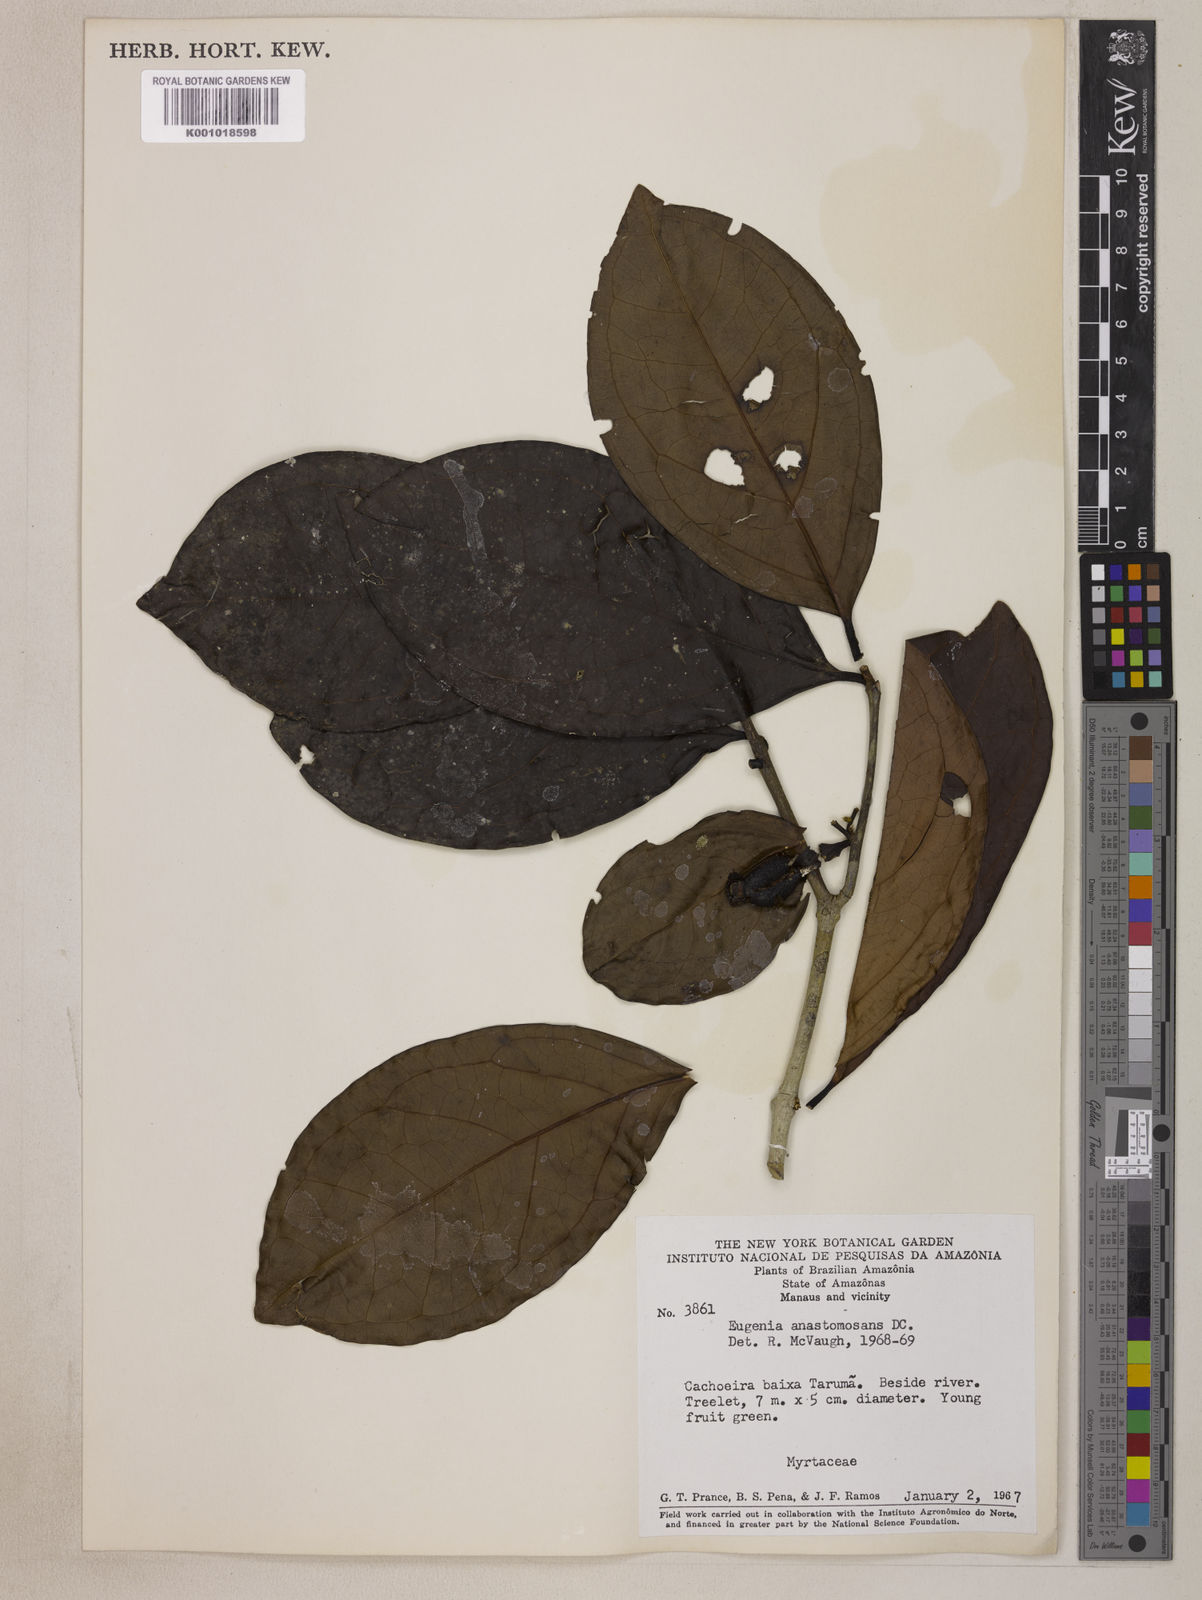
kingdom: Plantae
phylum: Tracheophyta
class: Magnoliopsida
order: Myrtales
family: Myrtaceae
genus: Eugenia
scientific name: Eugenia anastomosans
